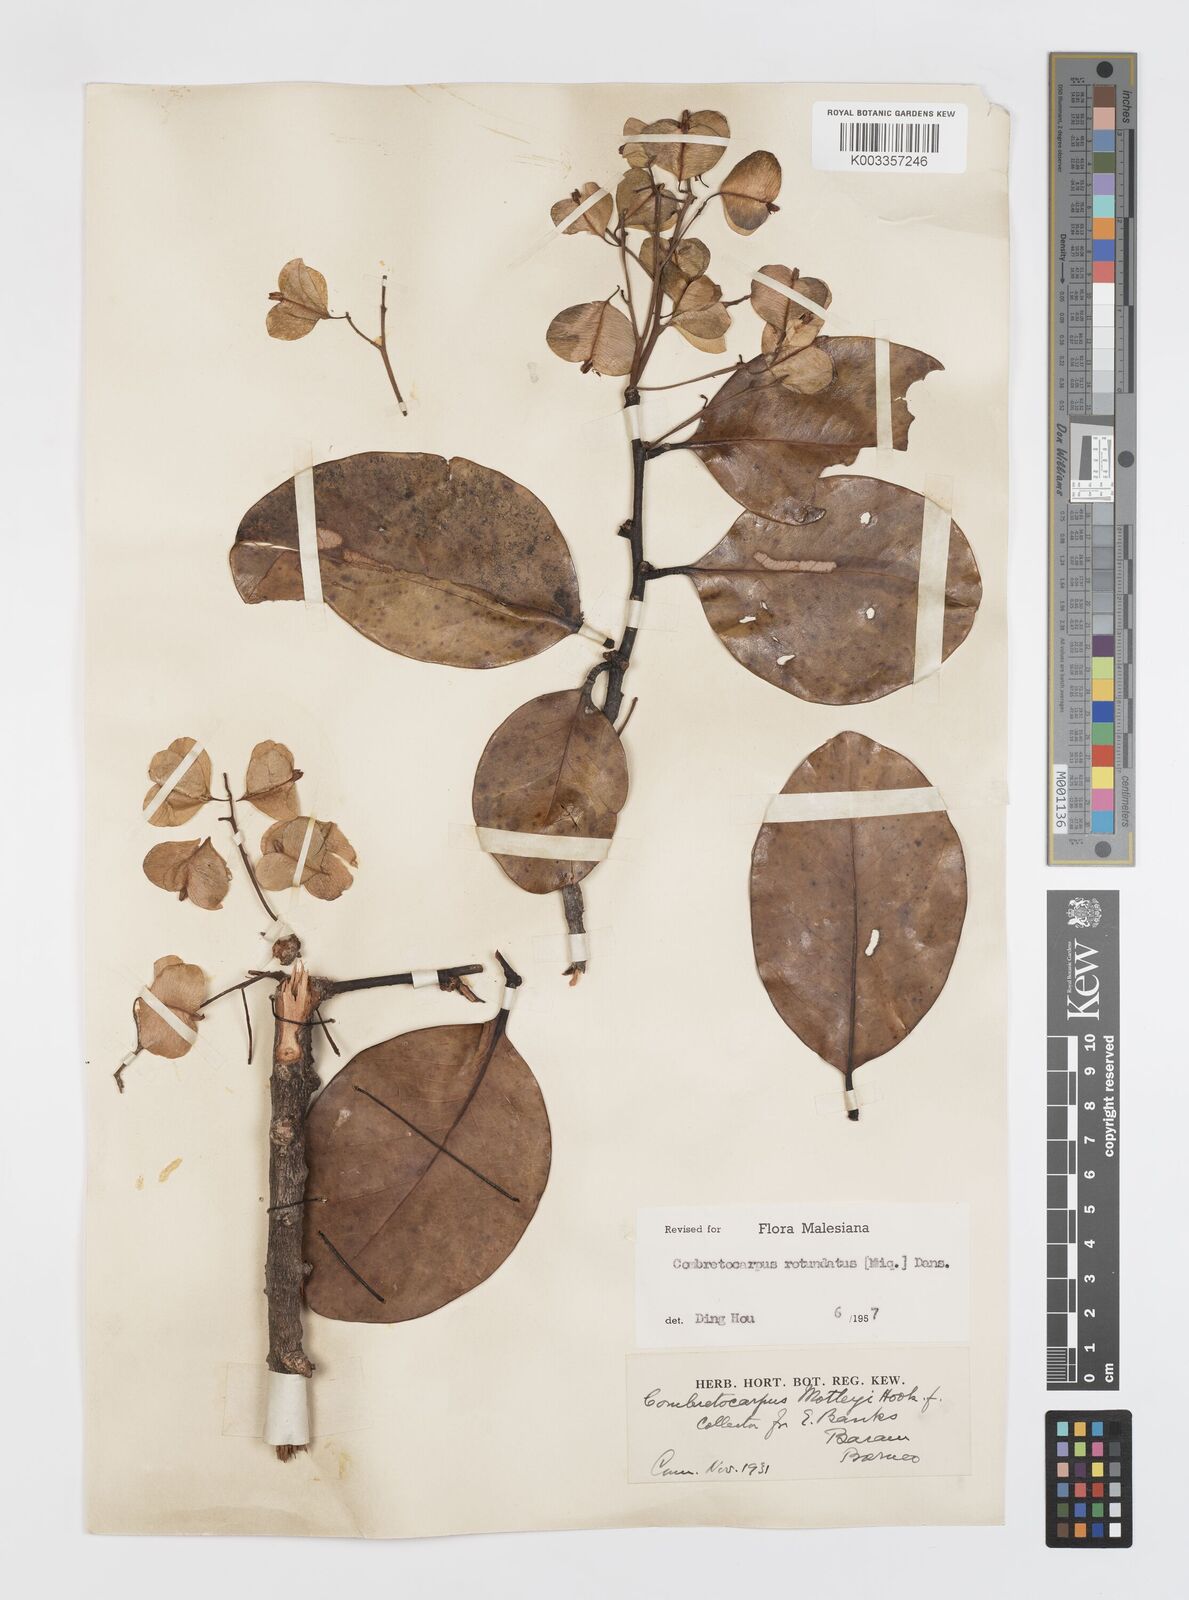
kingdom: Plantae
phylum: Tracheophyta
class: Magnoliopsida
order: Cucurbitales
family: Anisophylleaceae
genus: Combretocarpus
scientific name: Combretocarpus rotundatus
